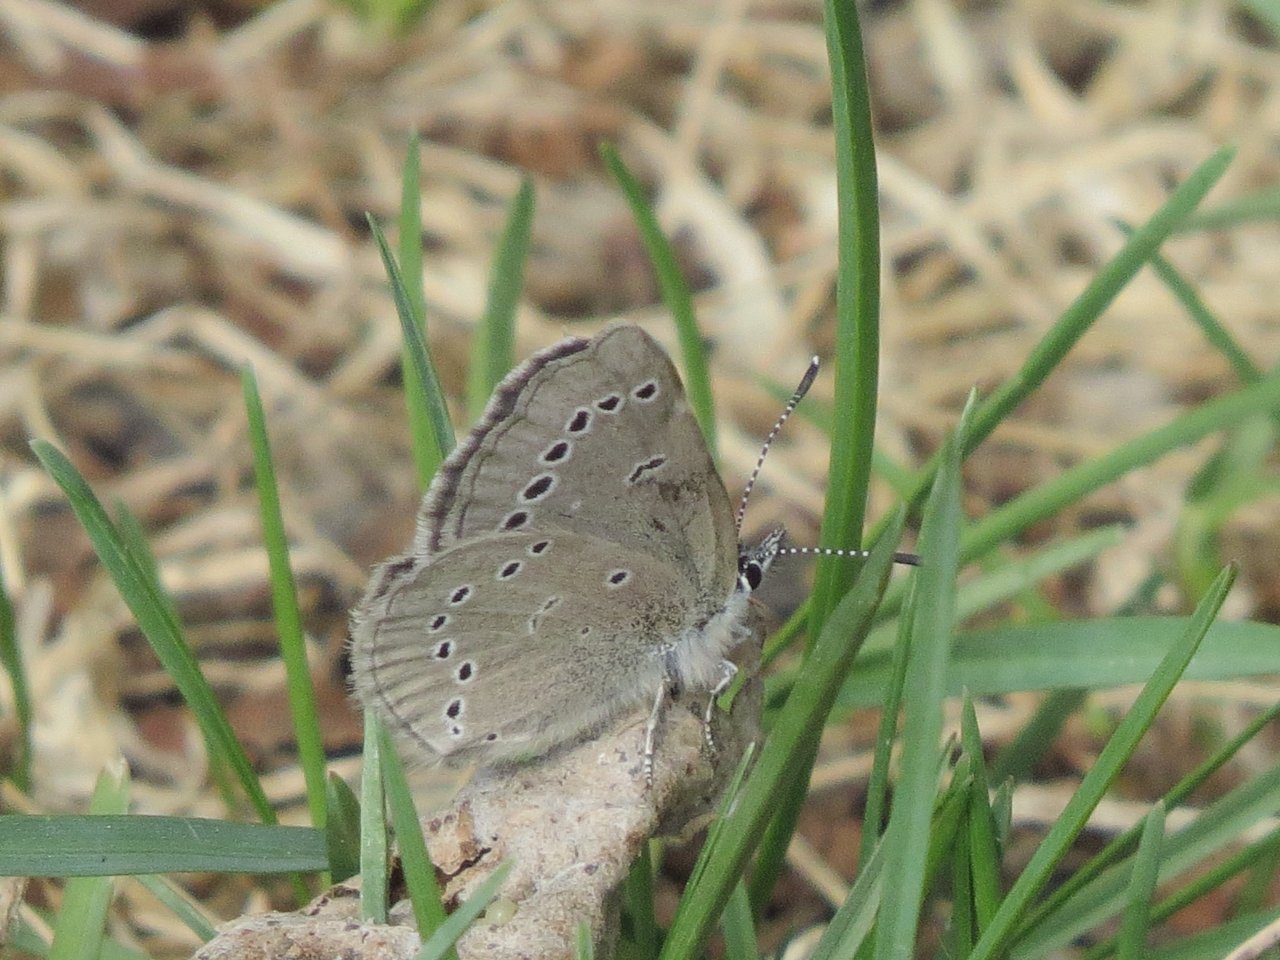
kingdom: Animalia
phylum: Arthropoda
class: Insecta
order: Lepidoptera
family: Lycaenidae
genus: Glaucopsyche
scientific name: Glaucopsyche lygdamus
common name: Silvery Blue
